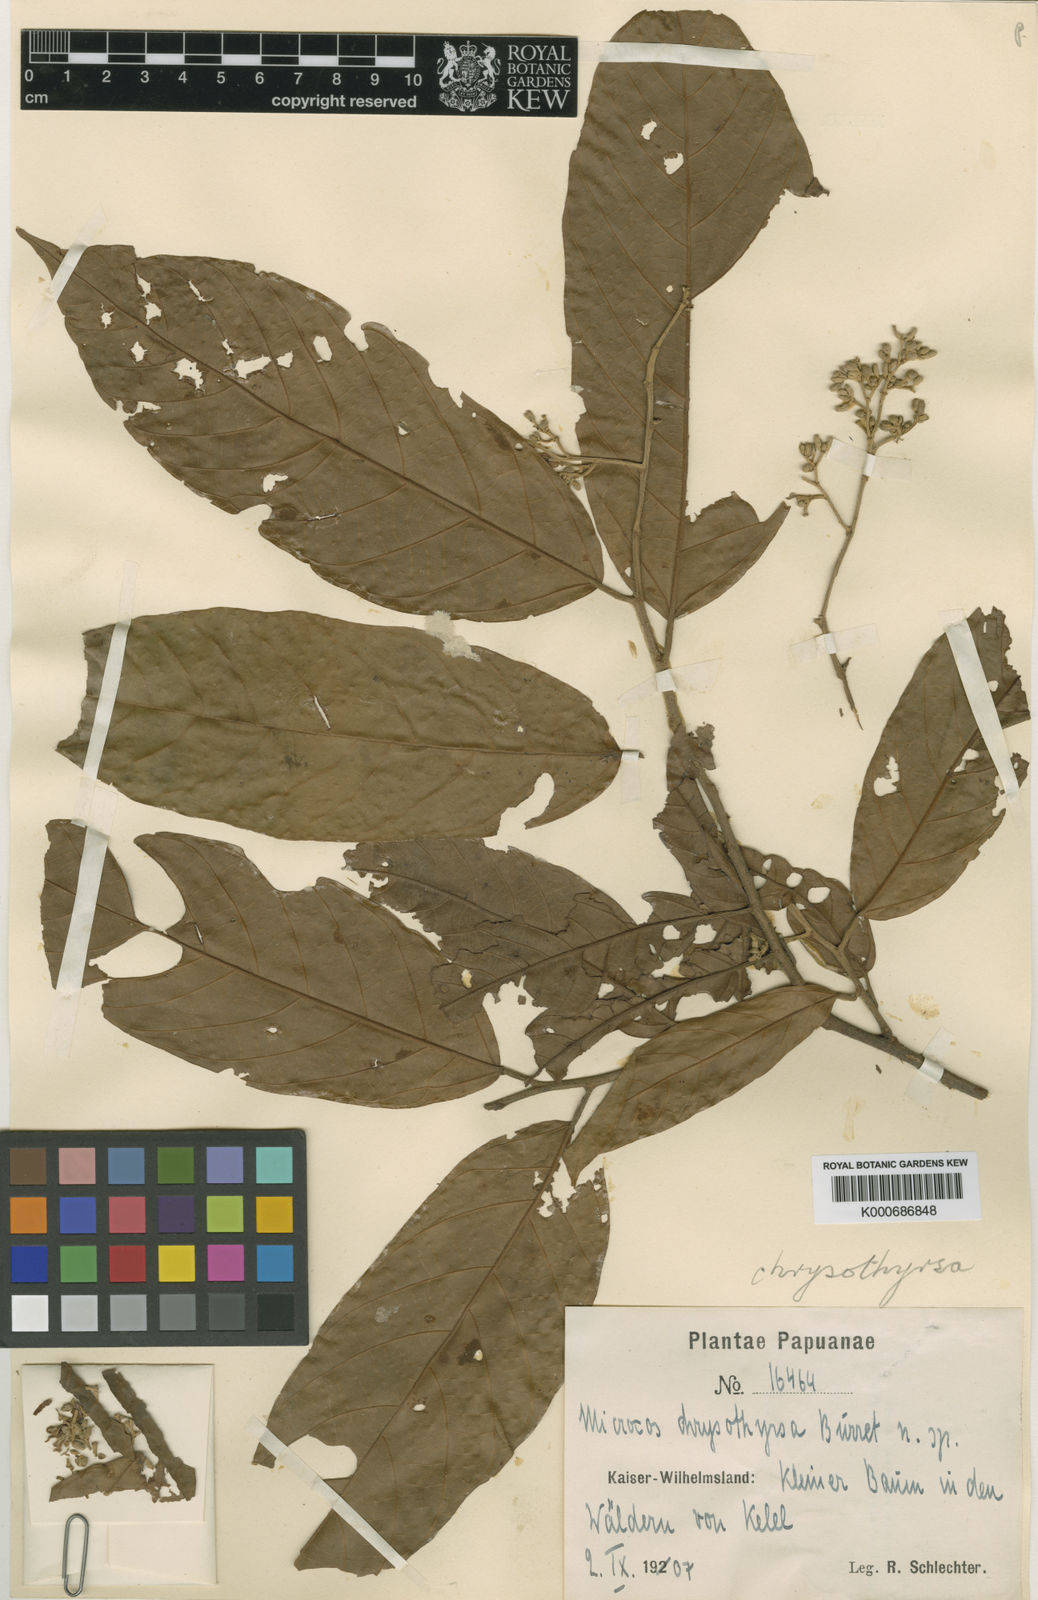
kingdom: Plantae
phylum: Tracheophyta
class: Magnoliopsida
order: Malvales
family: Malvaceae
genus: Microcos
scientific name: Microcos chrysothyrsa
